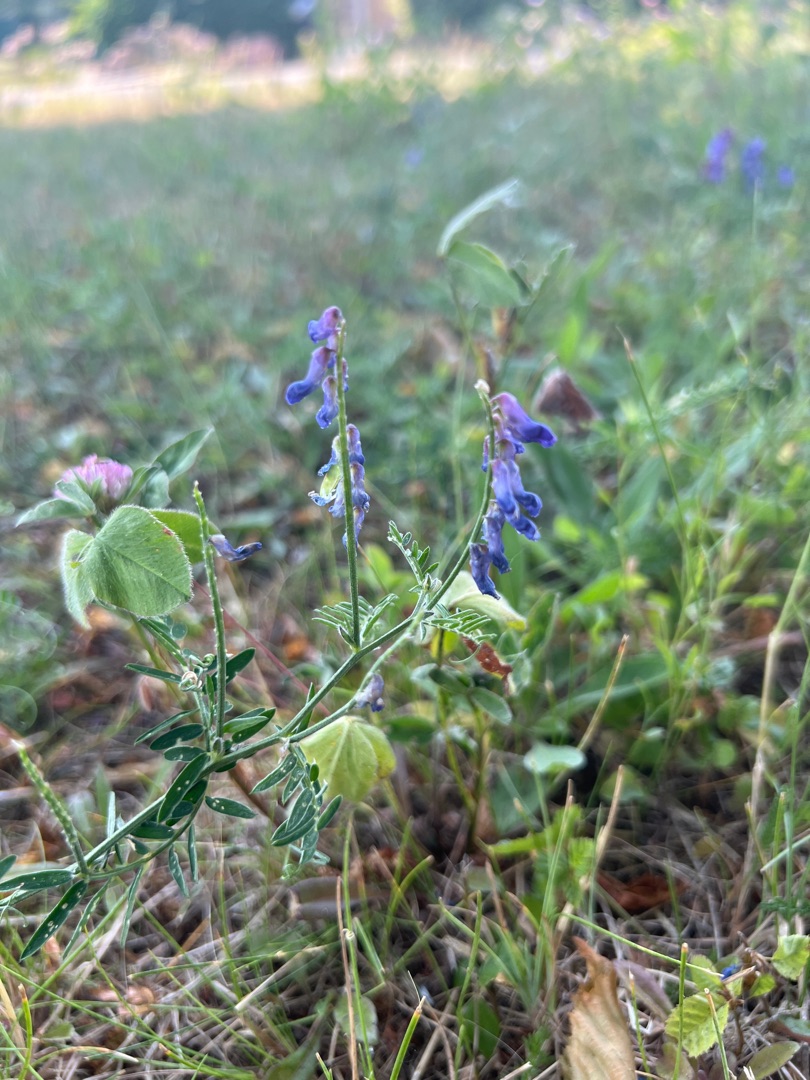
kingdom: Plantae
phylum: Tracheophyta
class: Magnoliopsida
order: Fabales
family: Fabaceae
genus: Vicia
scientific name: Vicia cracca
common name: Muse-vikke
